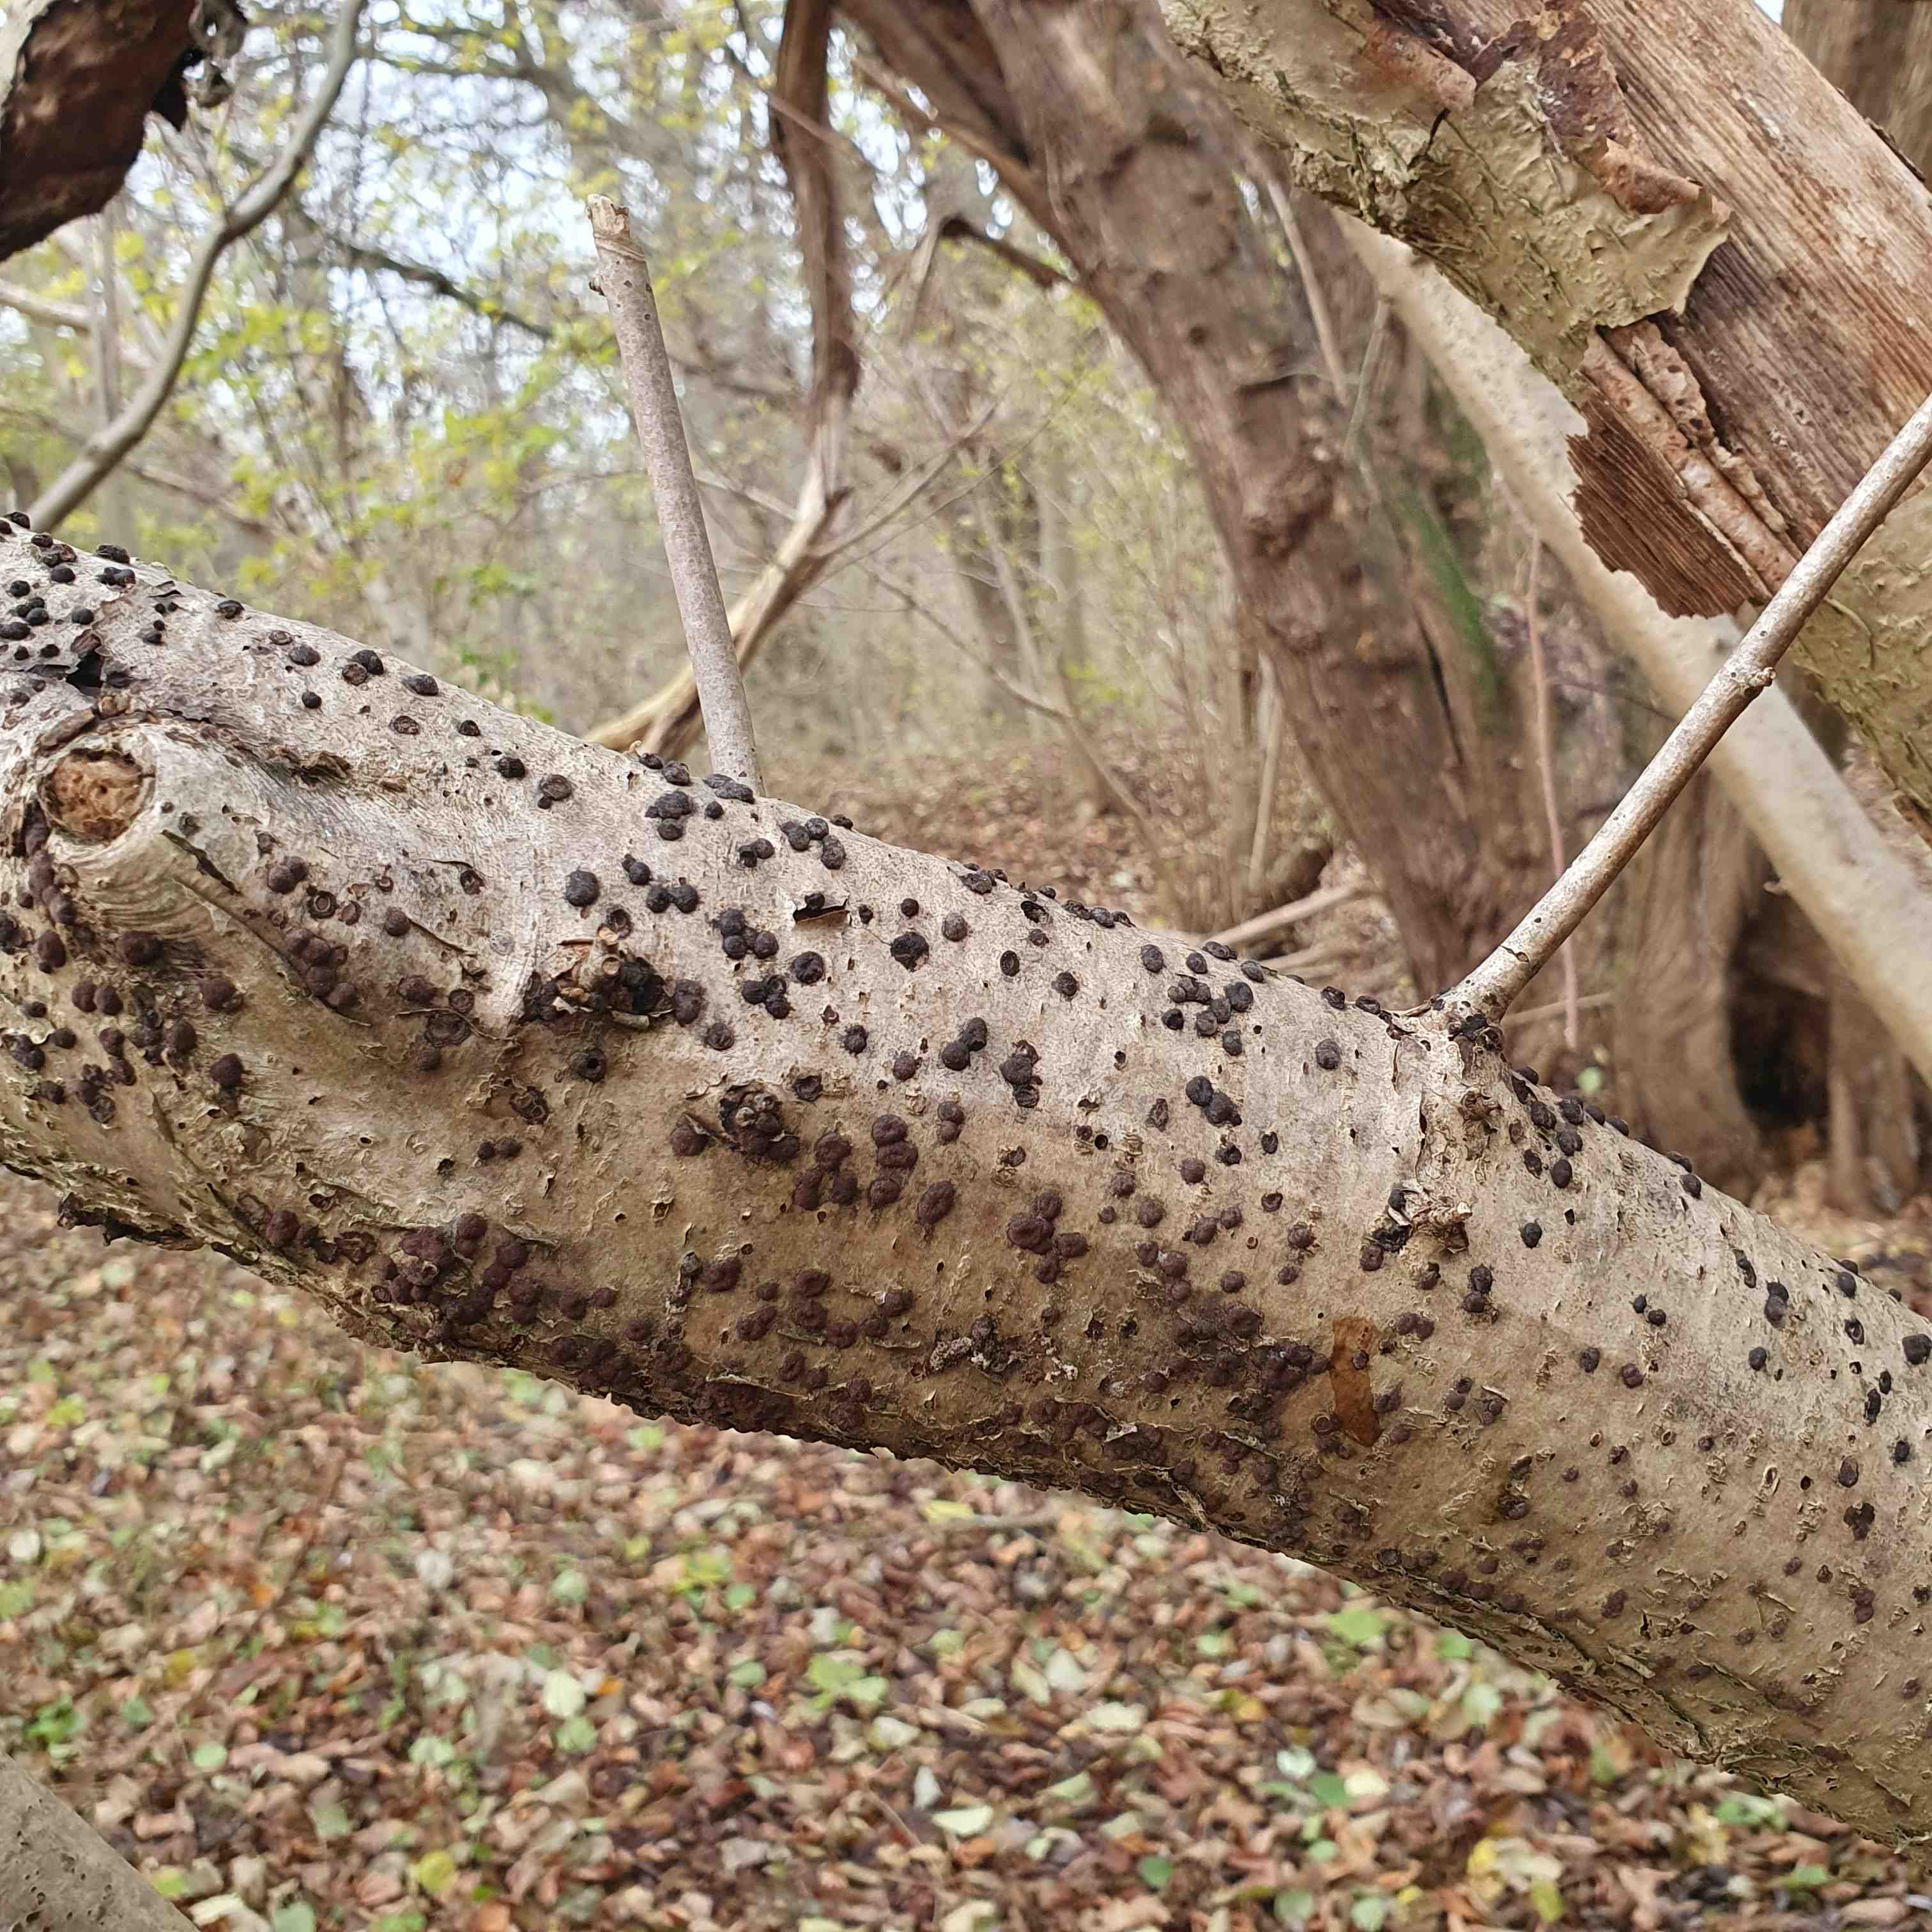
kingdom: Fungi
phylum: Ascomycota
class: Sordariomycetes
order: Xylariales
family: Hypoxylaceae
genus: Hypoxylon
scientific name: Hypoxylon fuscum
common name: kegleformet kulbær
